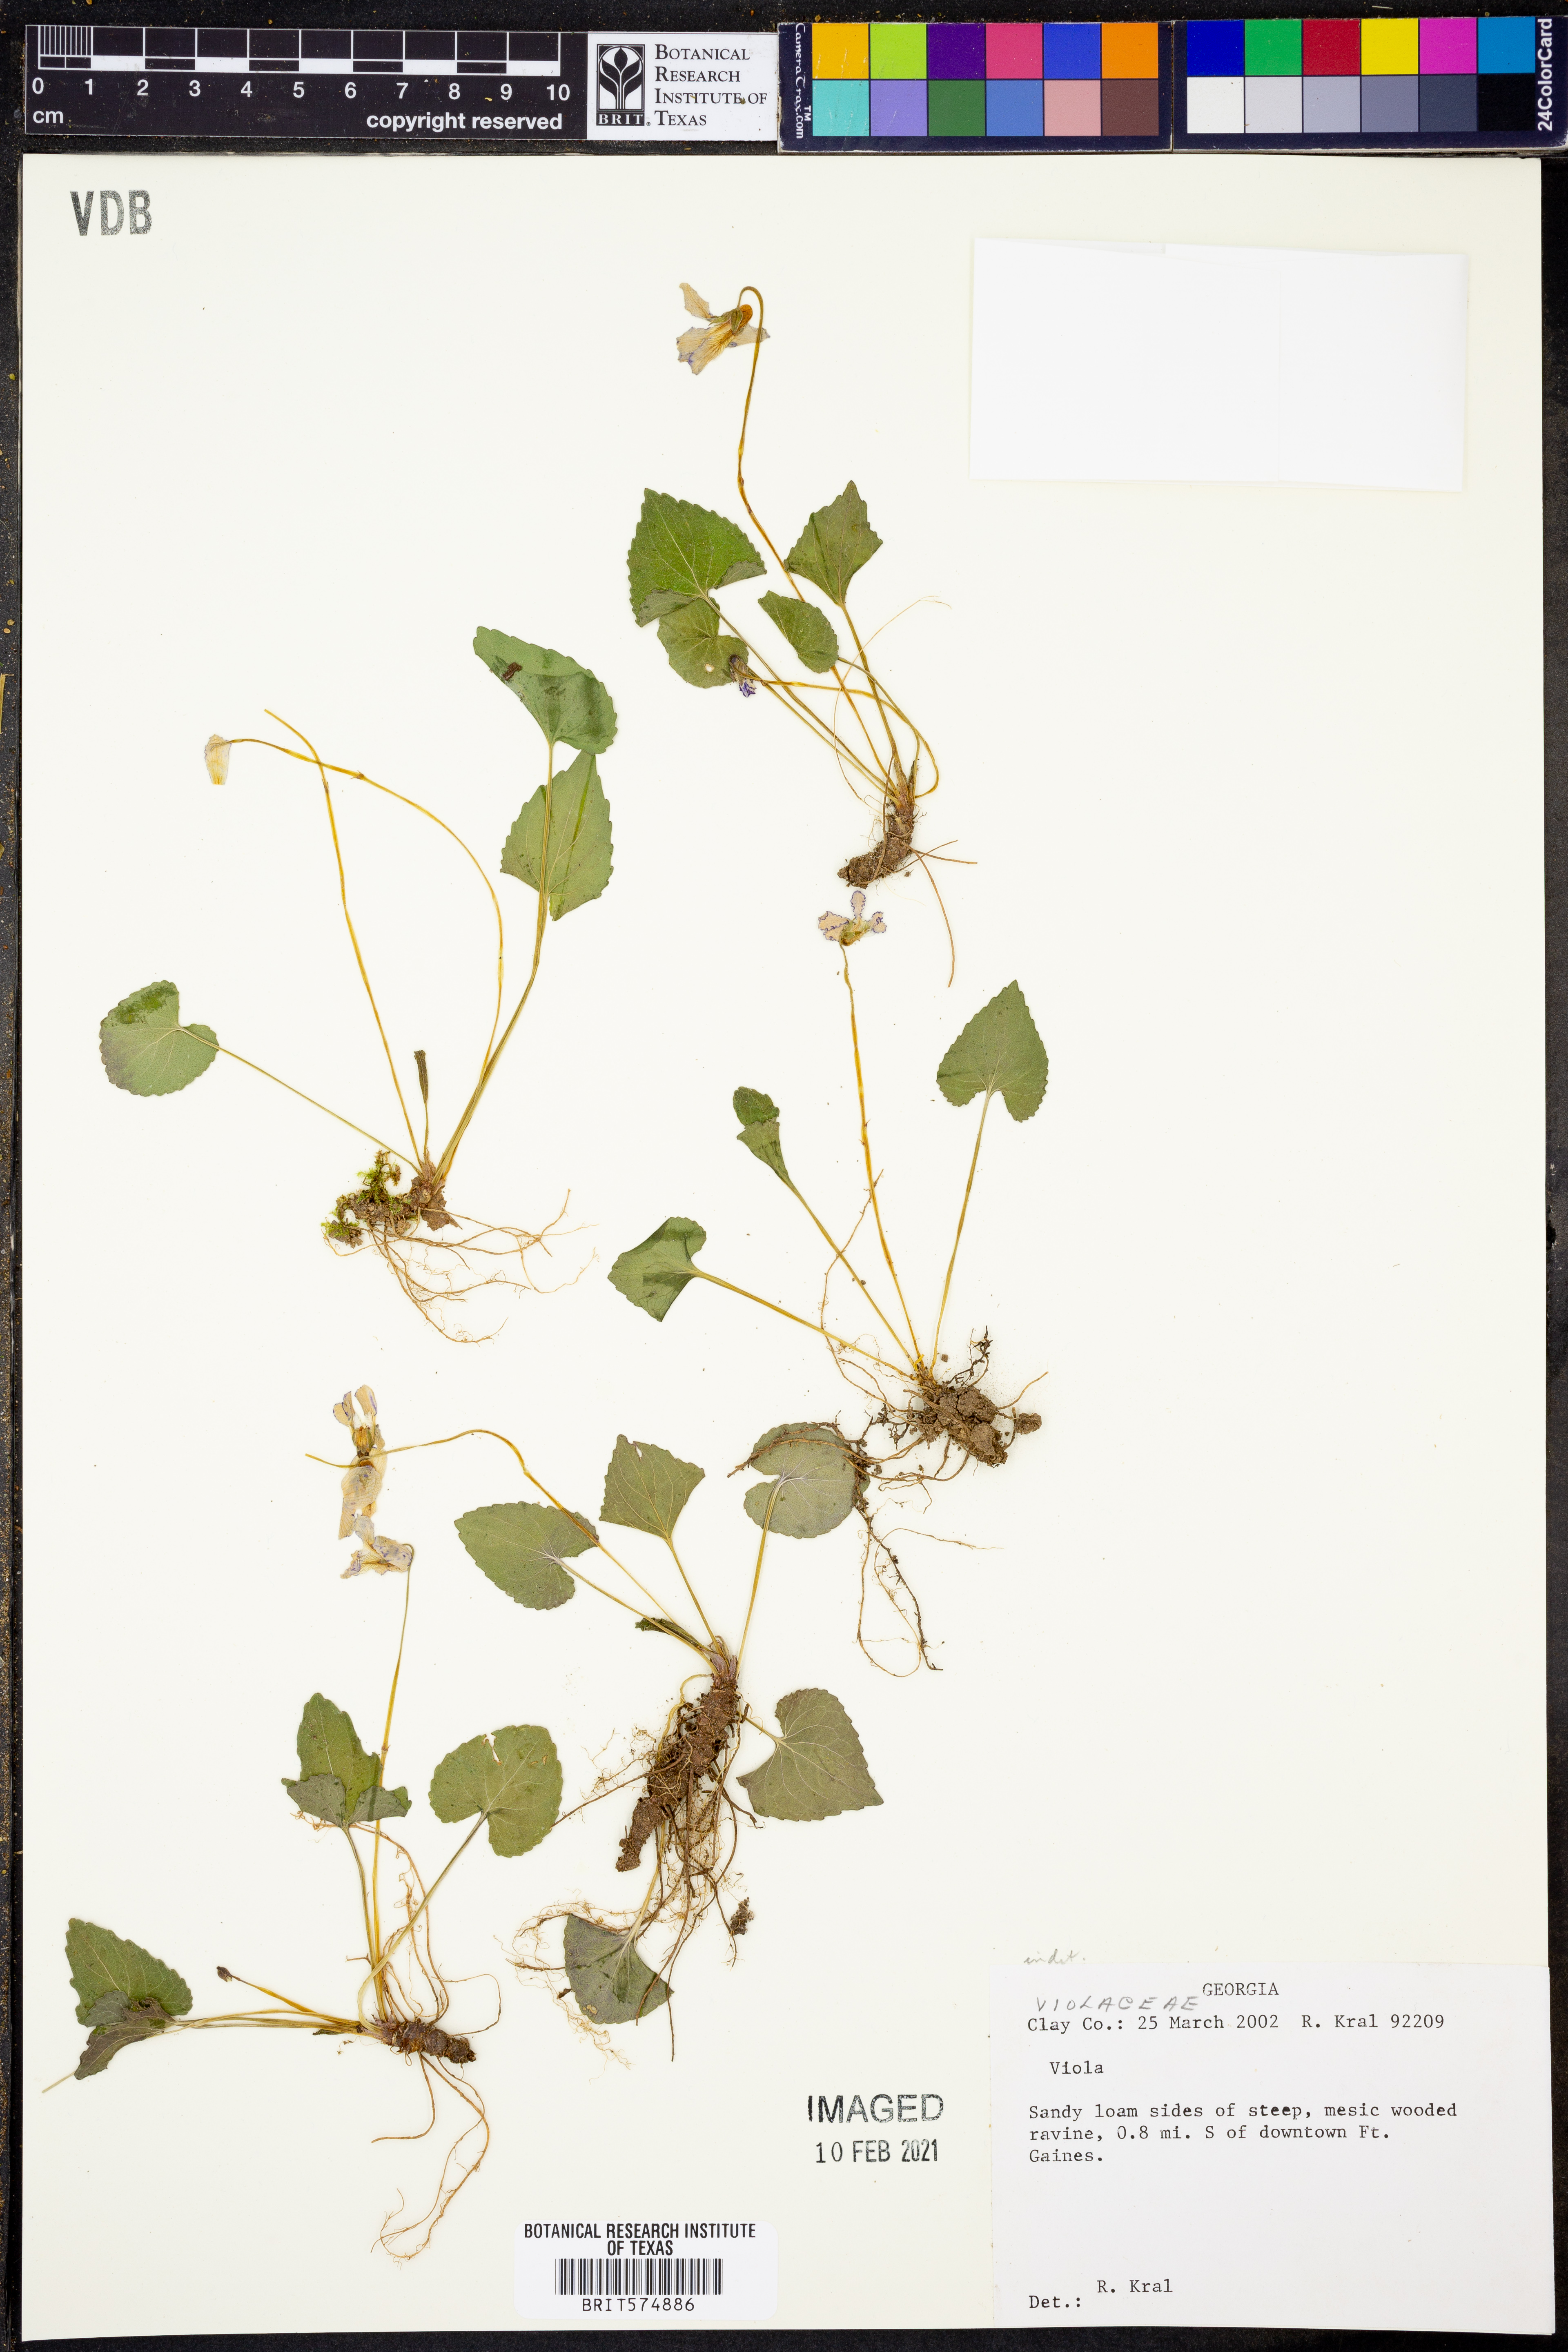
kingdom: Plantae
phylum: Tracheophyta
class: Magnoliopsida
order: Malpighiales
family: Violaceae
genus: Viola
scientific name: Viola
